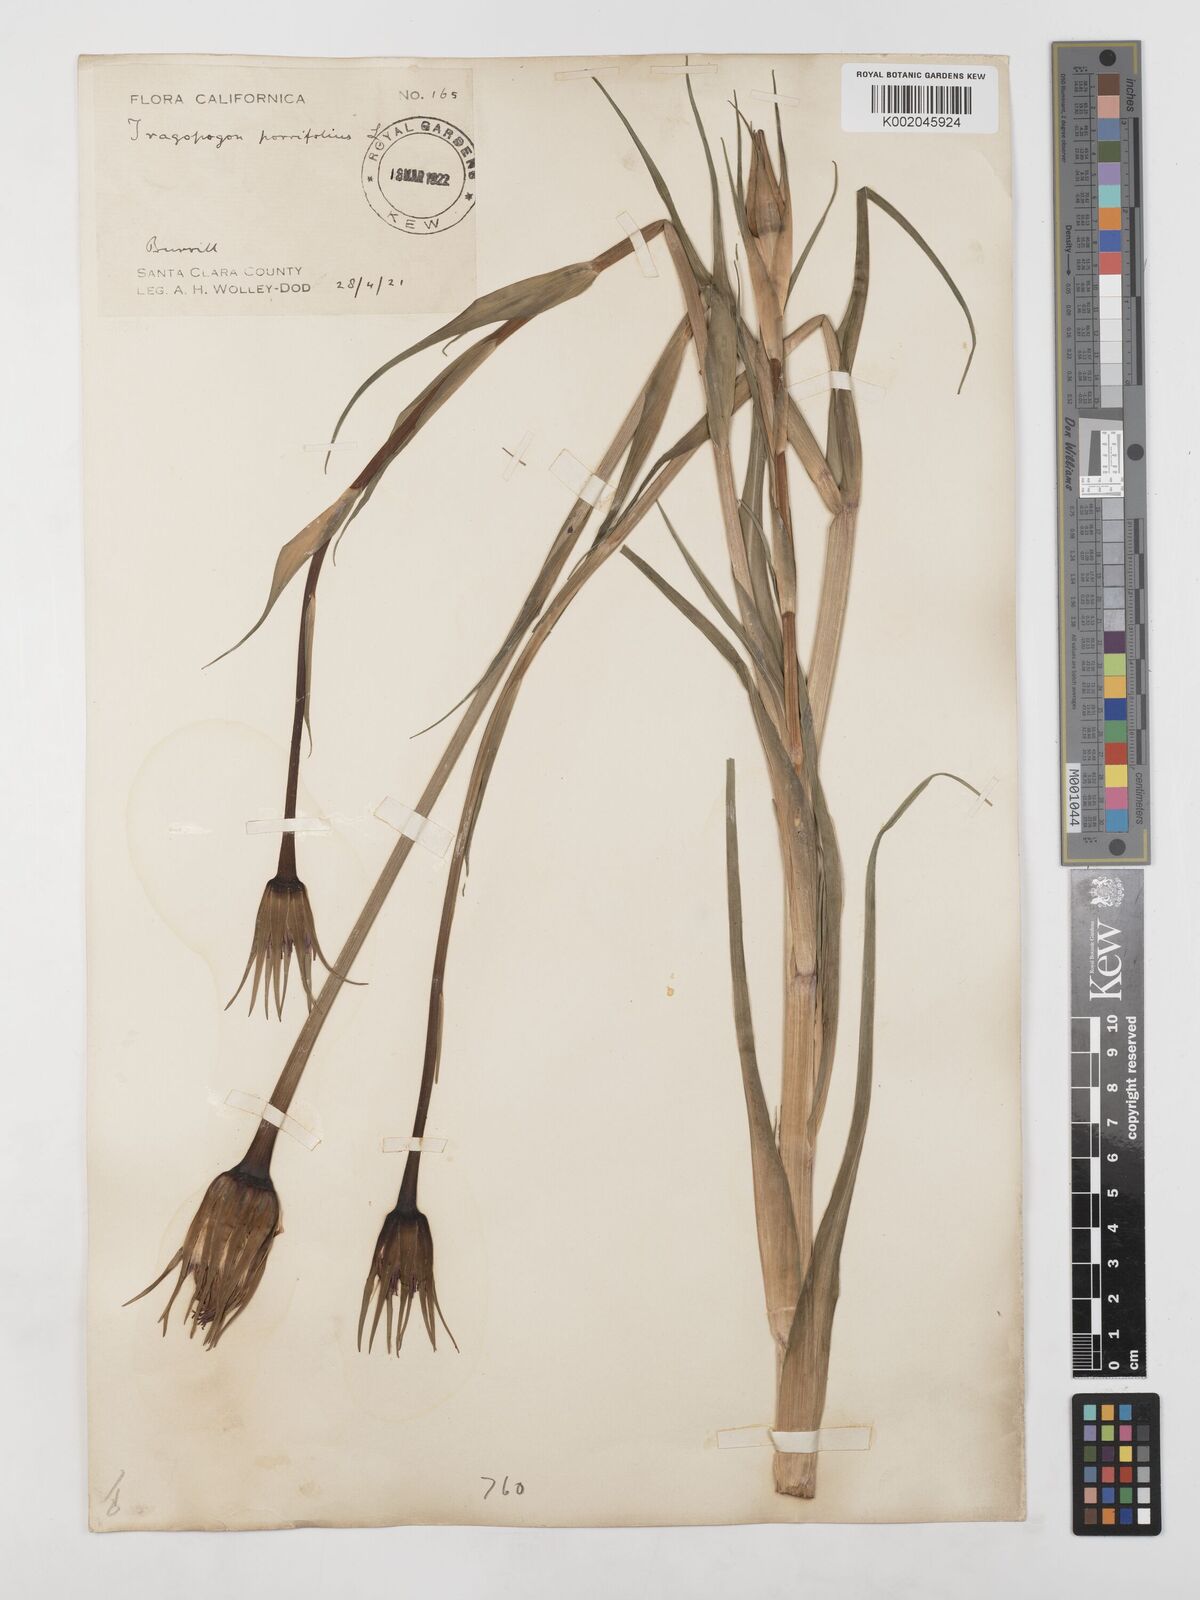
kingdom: Plantae
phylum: Tracheophyta
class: Magnoliopsida
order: Asterales
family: Asteraceae
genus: Tragopogon
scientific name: Tragopogon porrifolius
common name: Salsify
